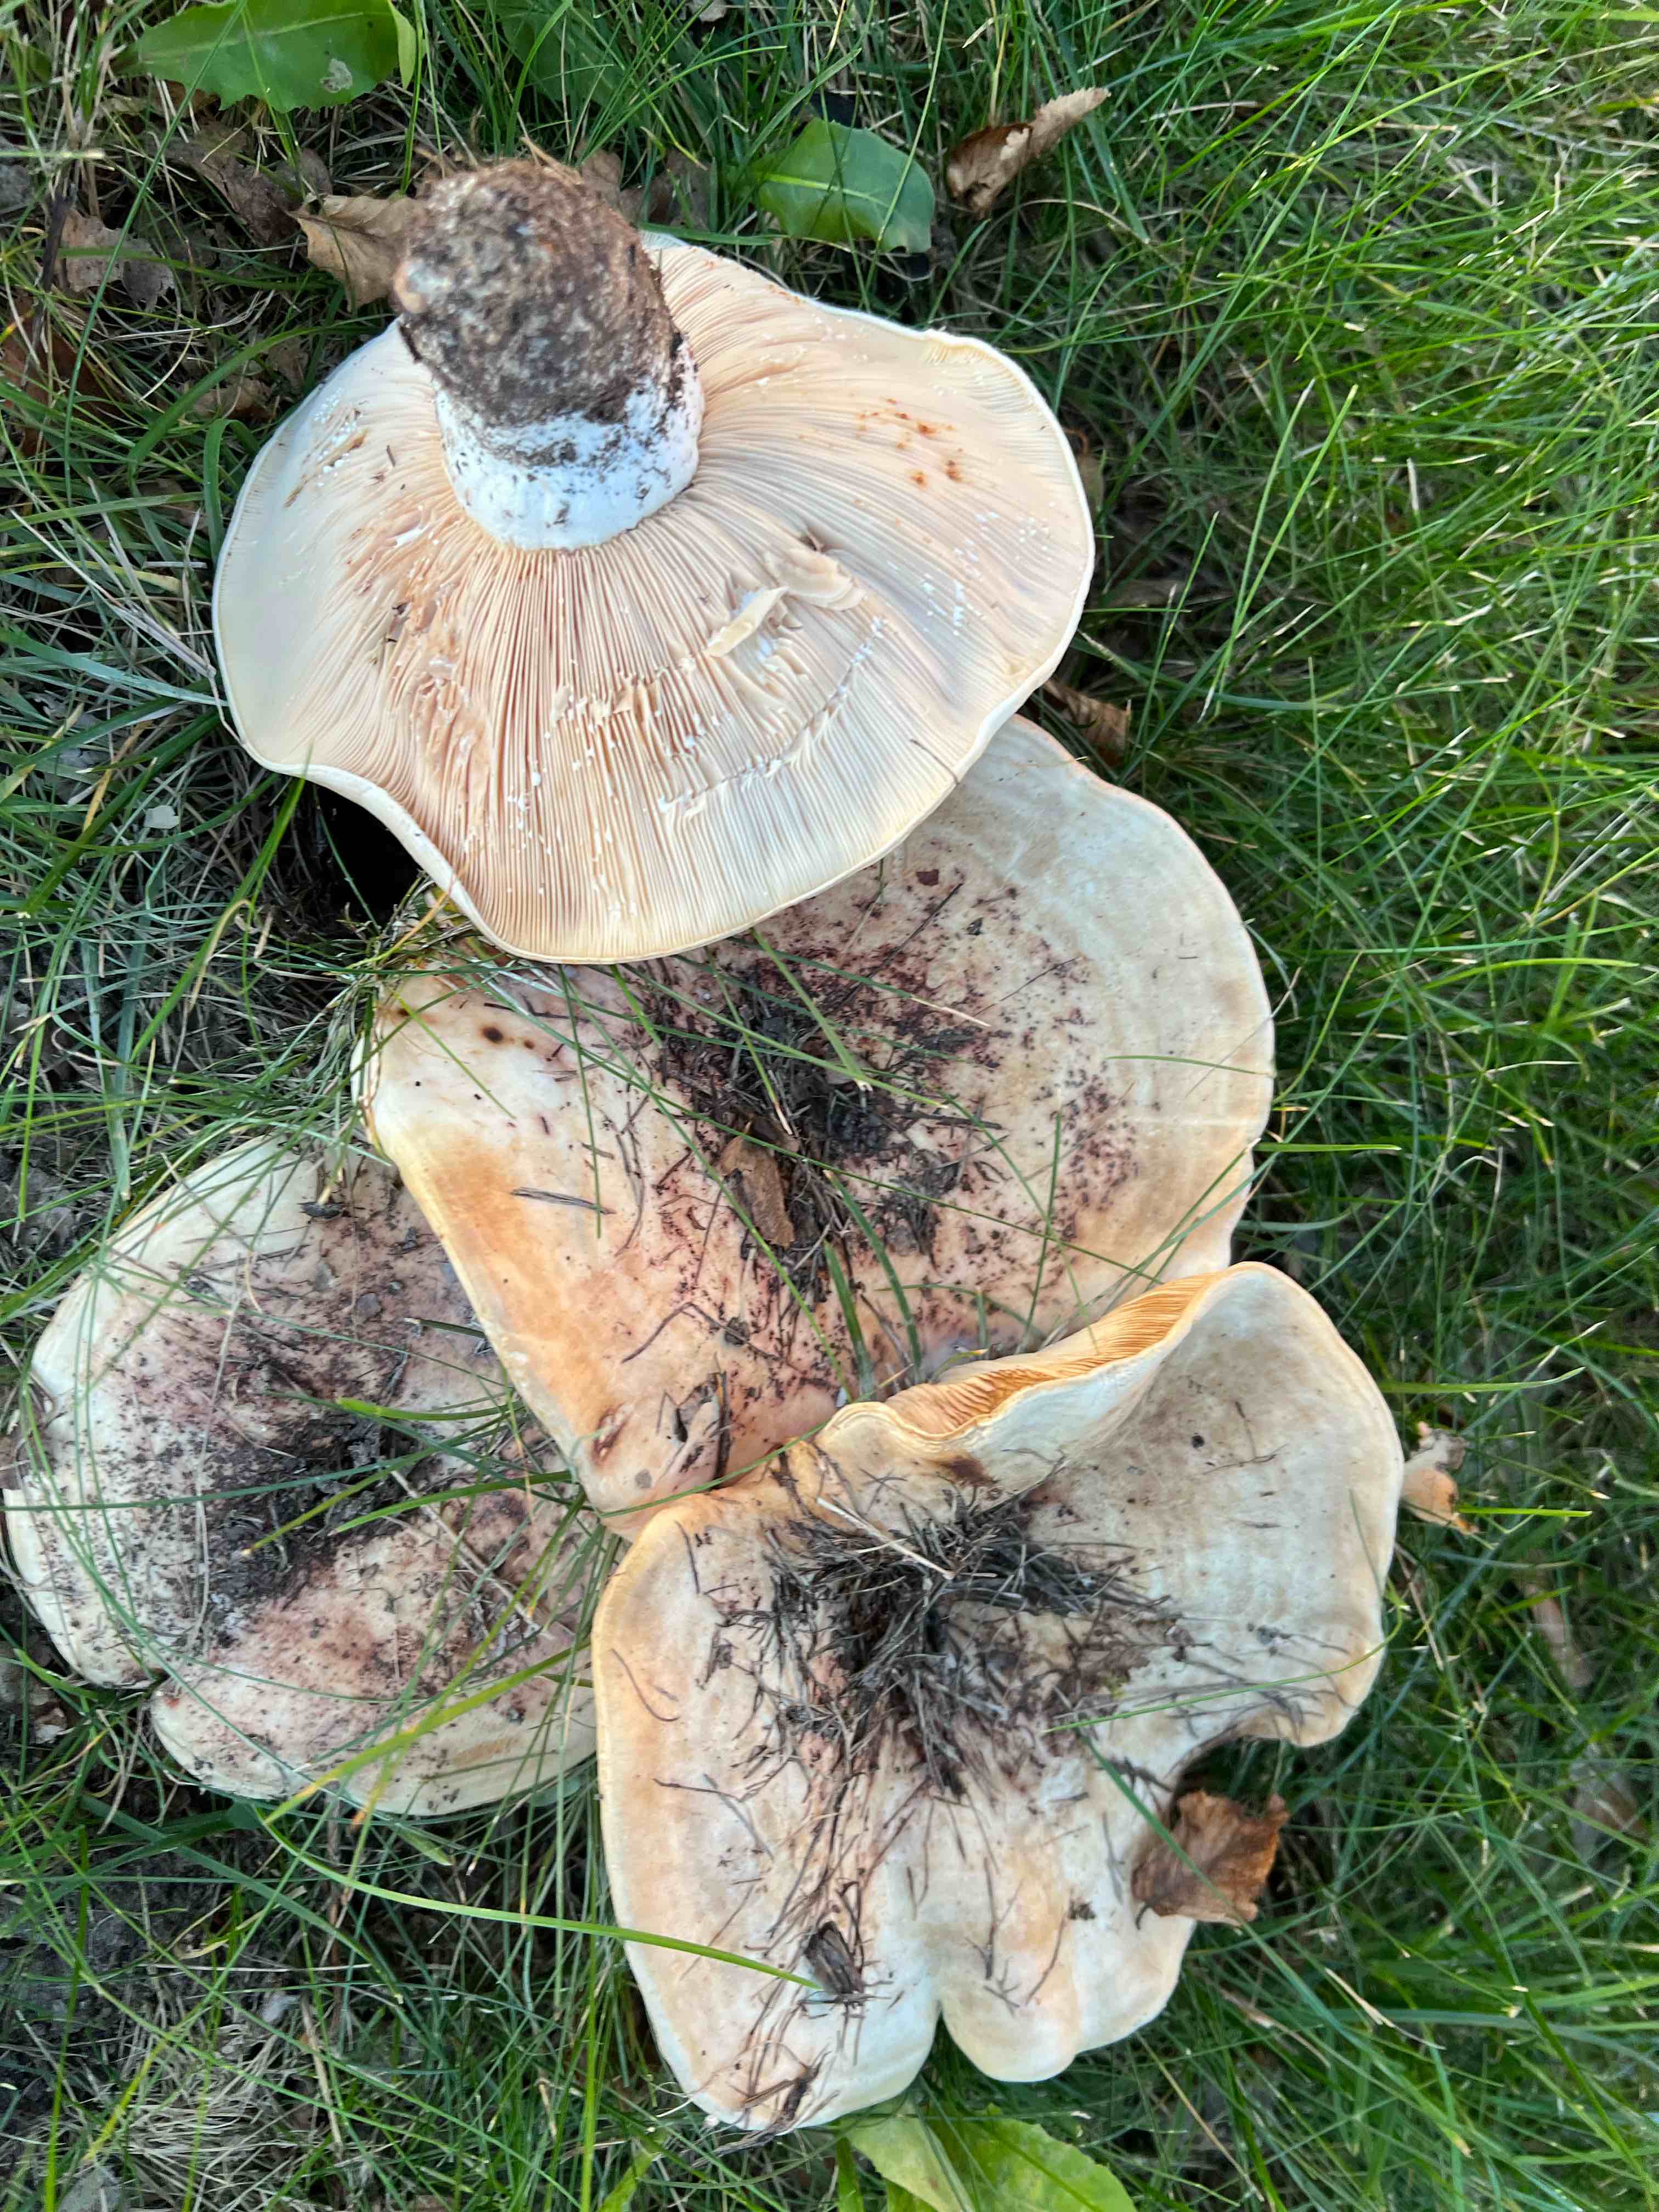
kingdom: Fungi
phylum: Basidiomycota
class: Agaricomycetes
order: Russulales
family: Russulaceae
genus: Lactarius
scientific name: Lactarius controversus
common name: rosabladet mælkehat
